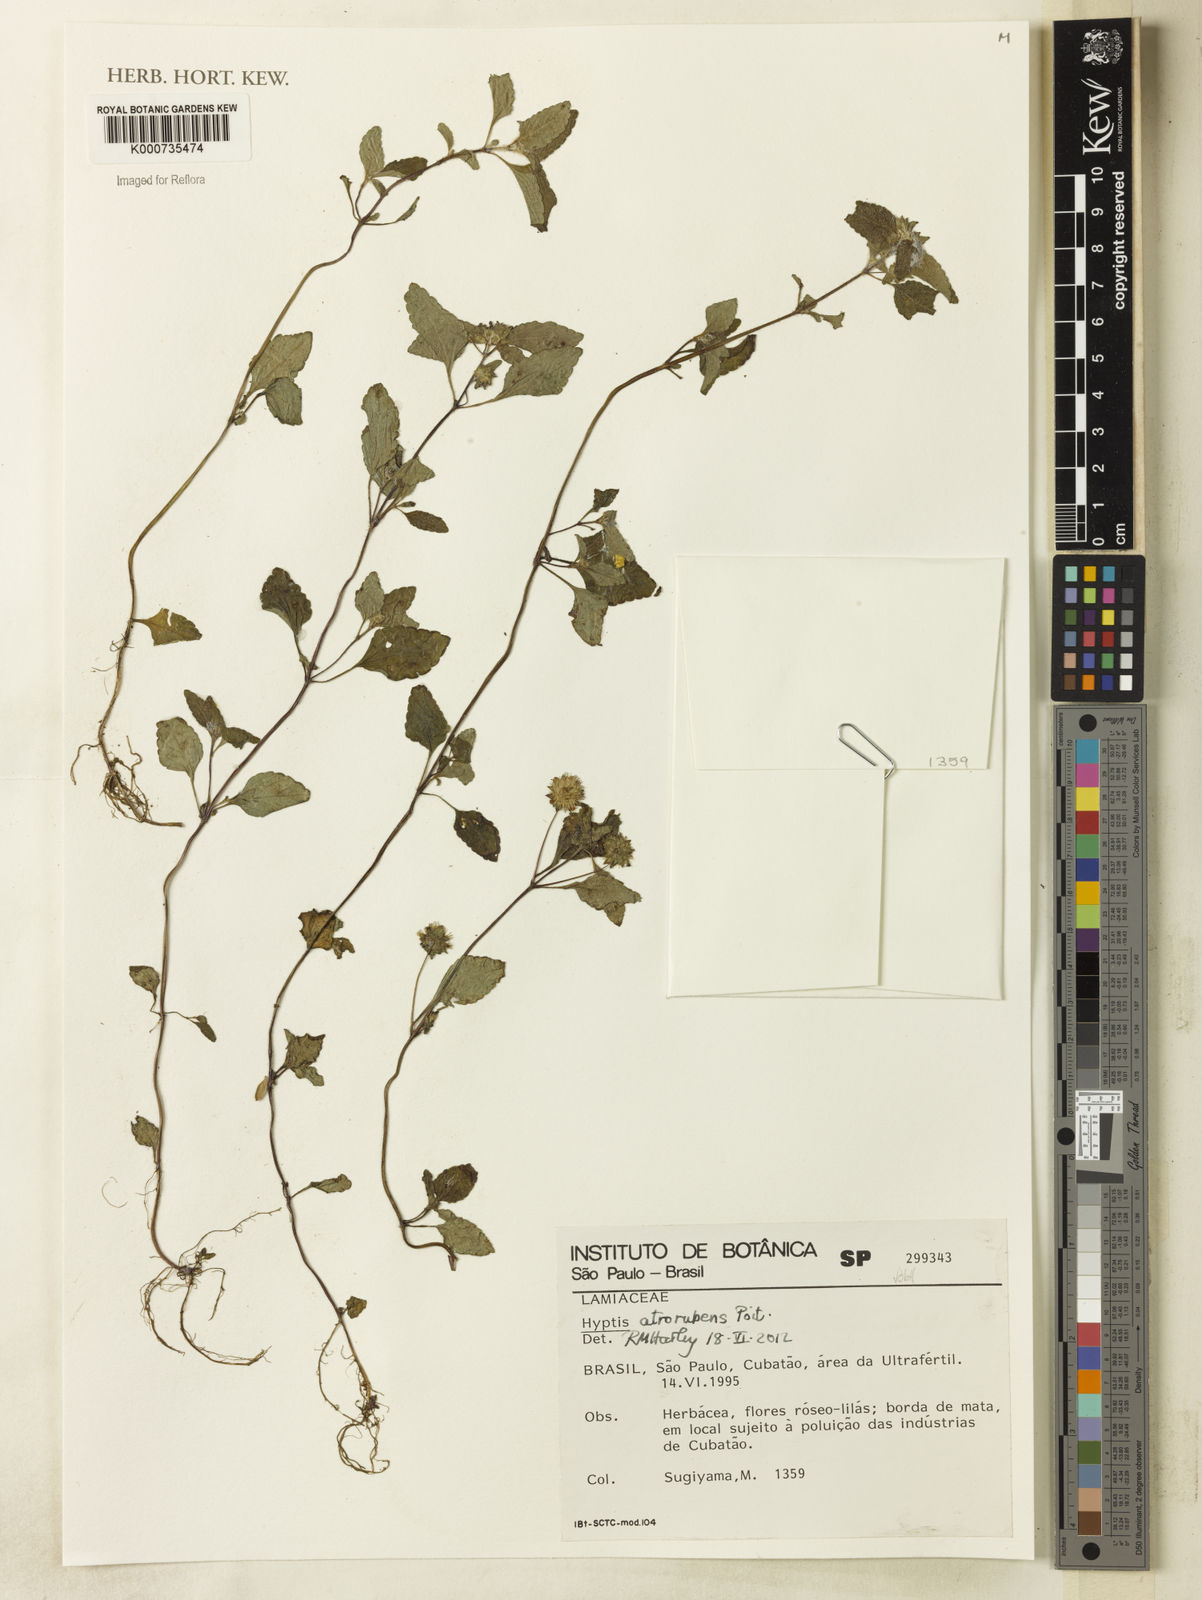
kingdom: Plantae
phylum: Tracheophyta
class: Magnoliopsida
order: Lamiales
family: Lamiaceae
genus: Hyptis
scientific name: Hyptis atrorubens
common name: Lanmant
